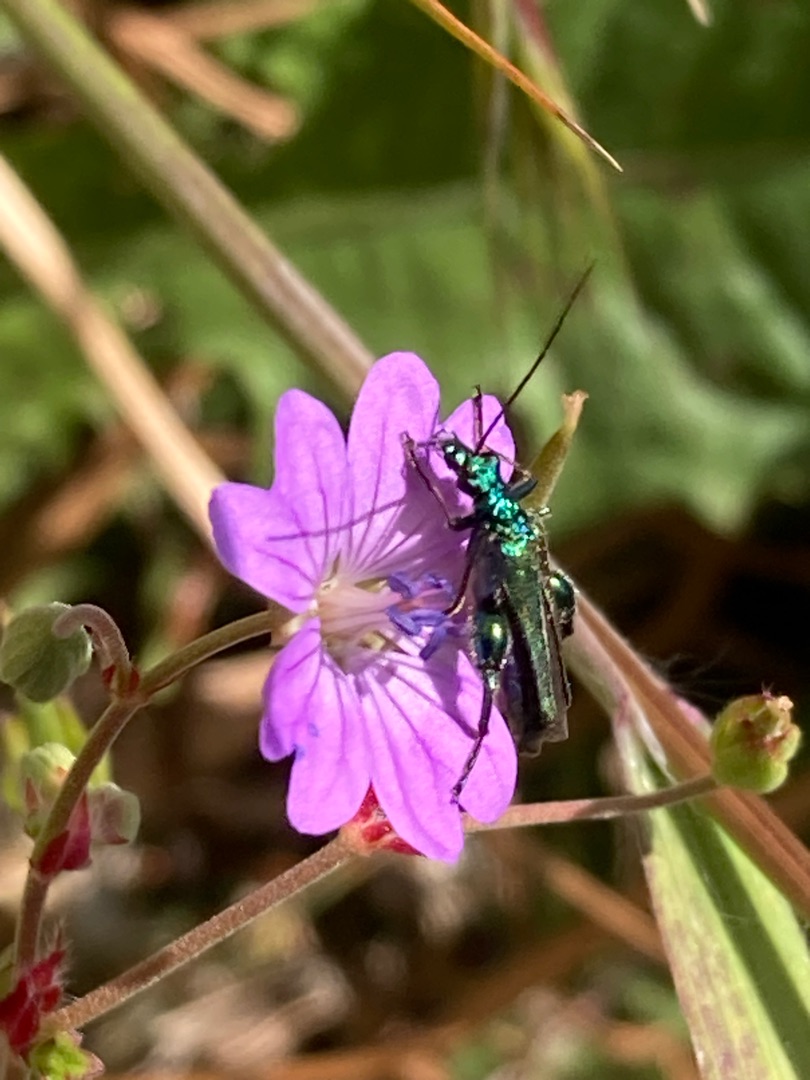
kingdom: Animalia
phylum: Arthropoda
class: Insecta
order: Coleoptera
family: Oedemeridae
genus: Oedemera
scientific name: Oedemera nobilis
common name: Tyklårssolbille
